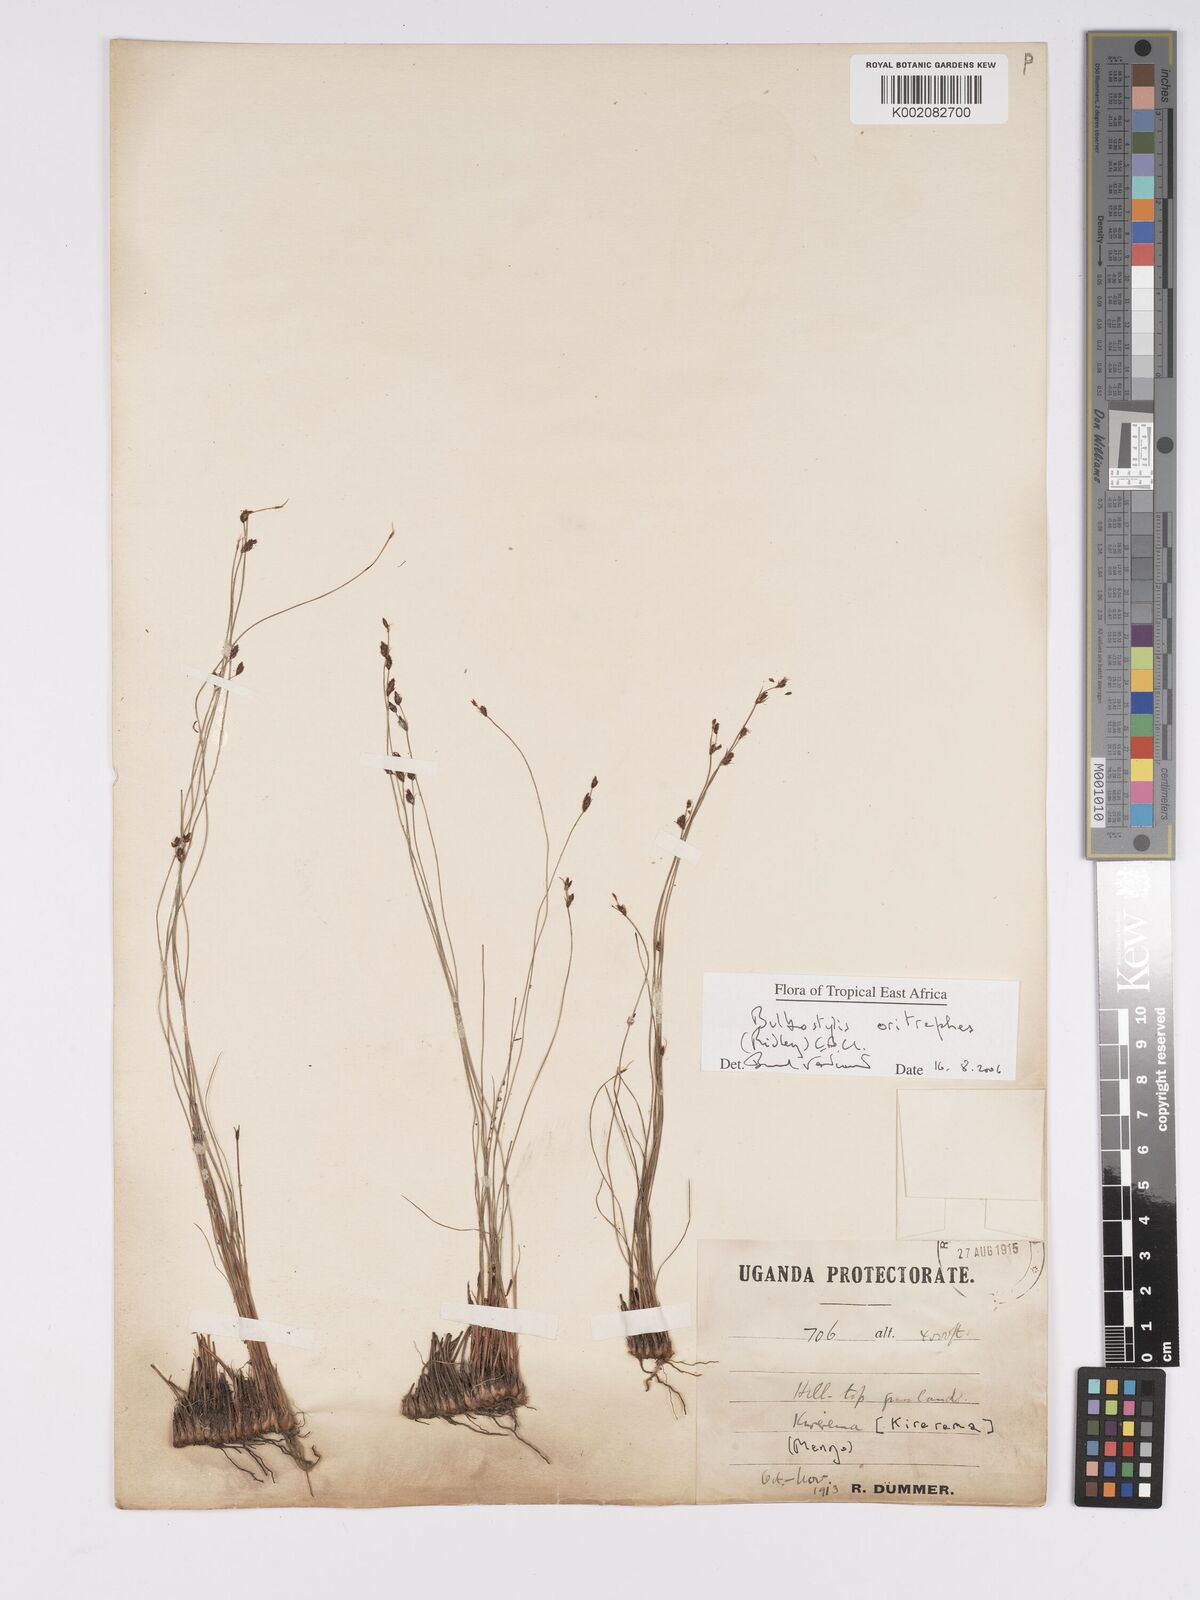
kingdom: Plantae
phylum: Tracheophyta
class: Liliopsida
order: Poales
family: Cyperaceae
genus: Bulbostylis
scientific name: Bulbostylis oritrephes
